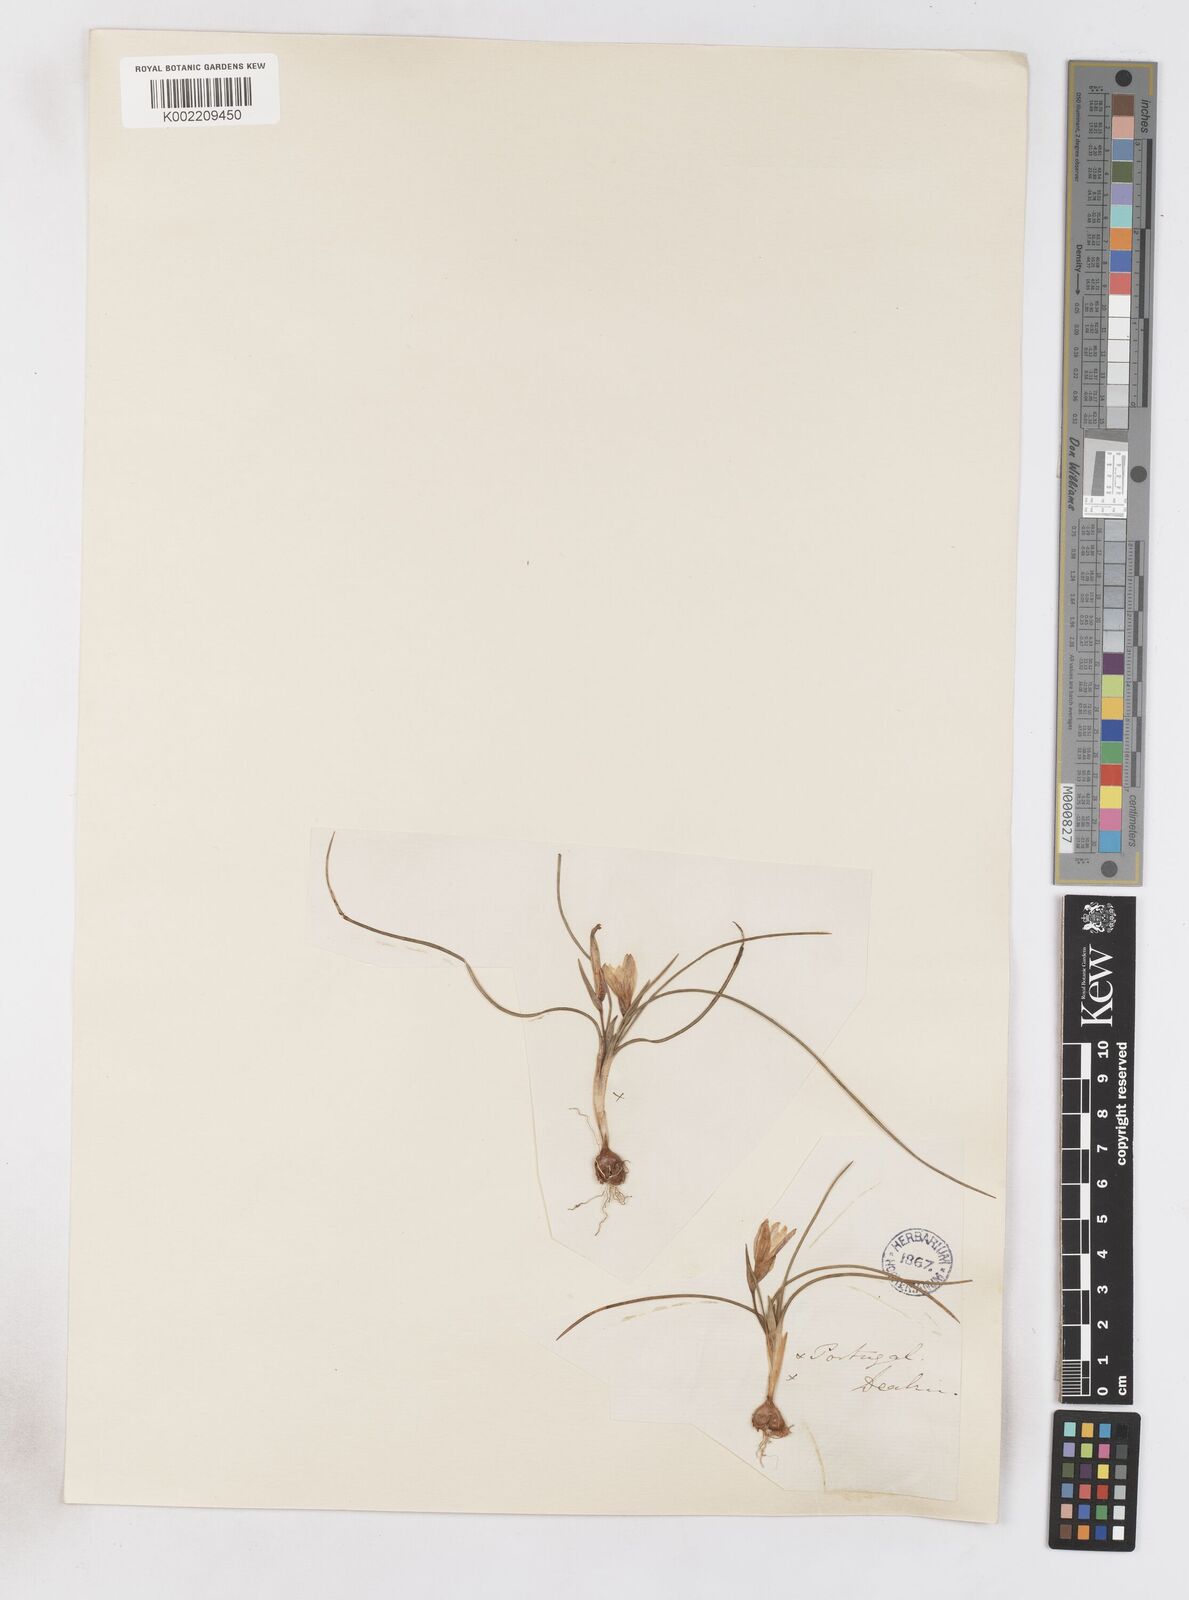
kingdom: Plantae
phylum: Tracheophyta
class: Liliopsida
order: Asparagales
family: Iridaceae
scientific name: Iridaceae
